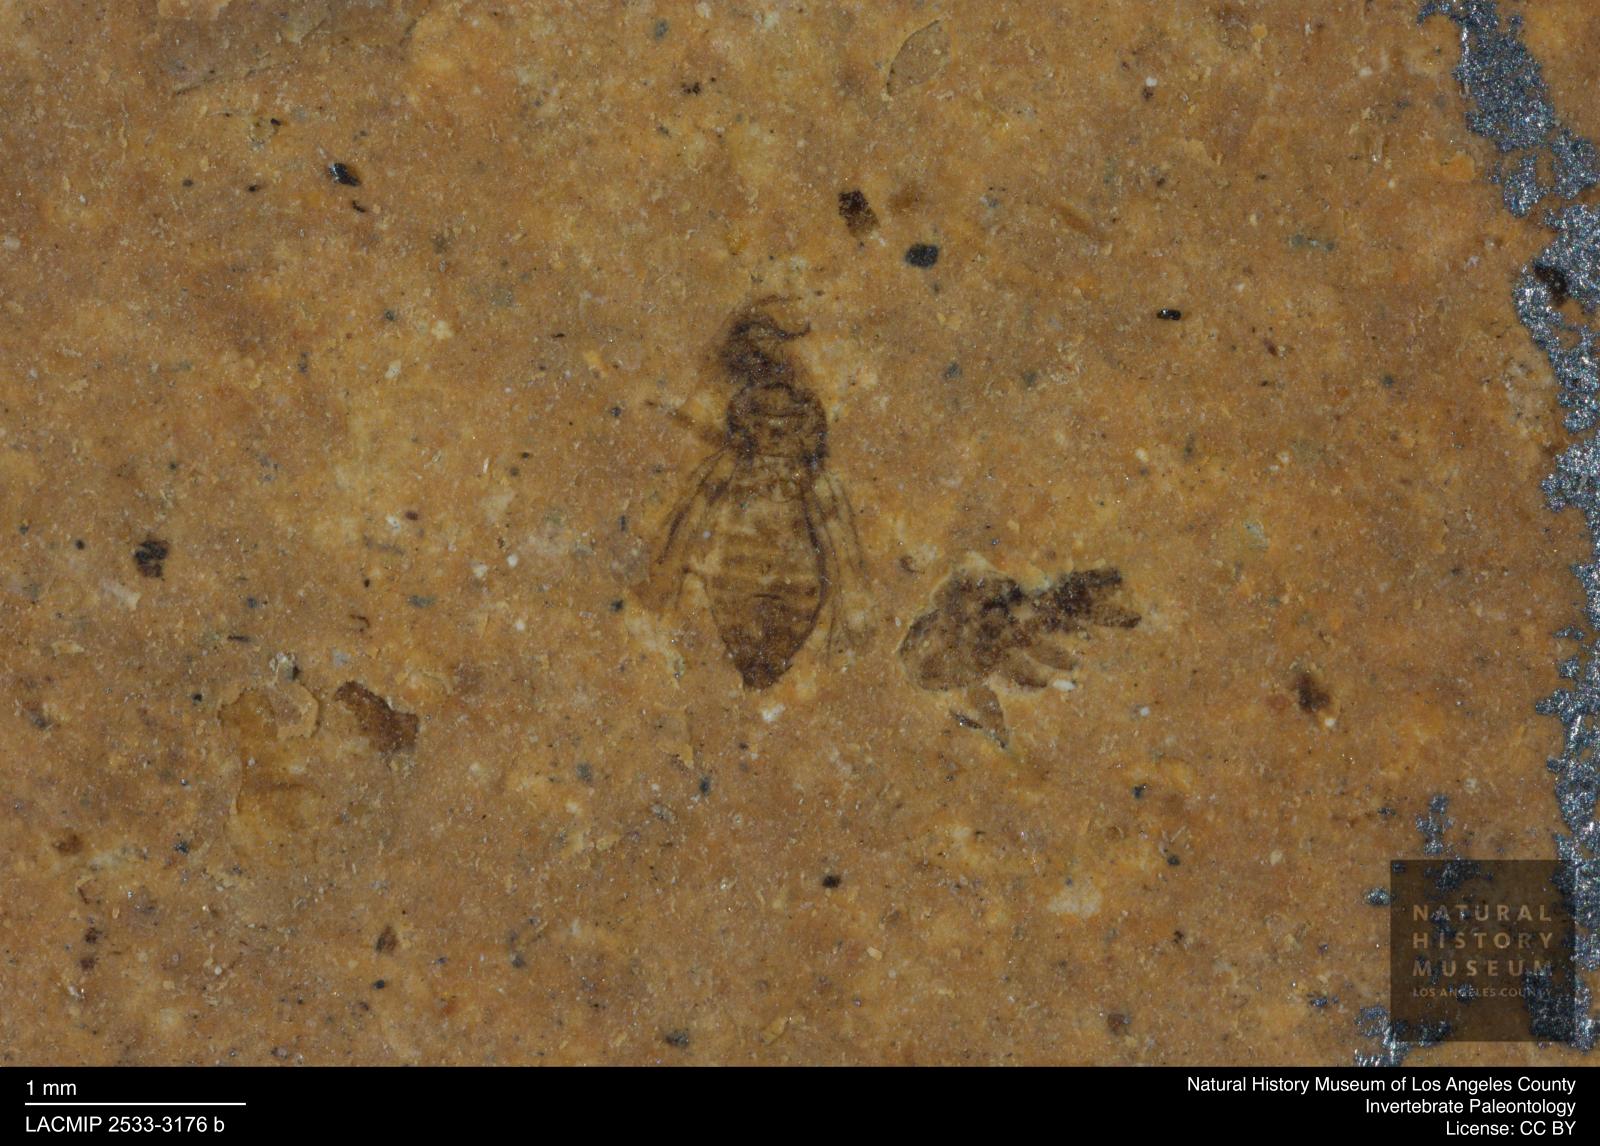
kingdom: Animalia
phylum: Arthropoda
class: Insecta
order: Thysanoptera
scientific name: Thysanoptera
